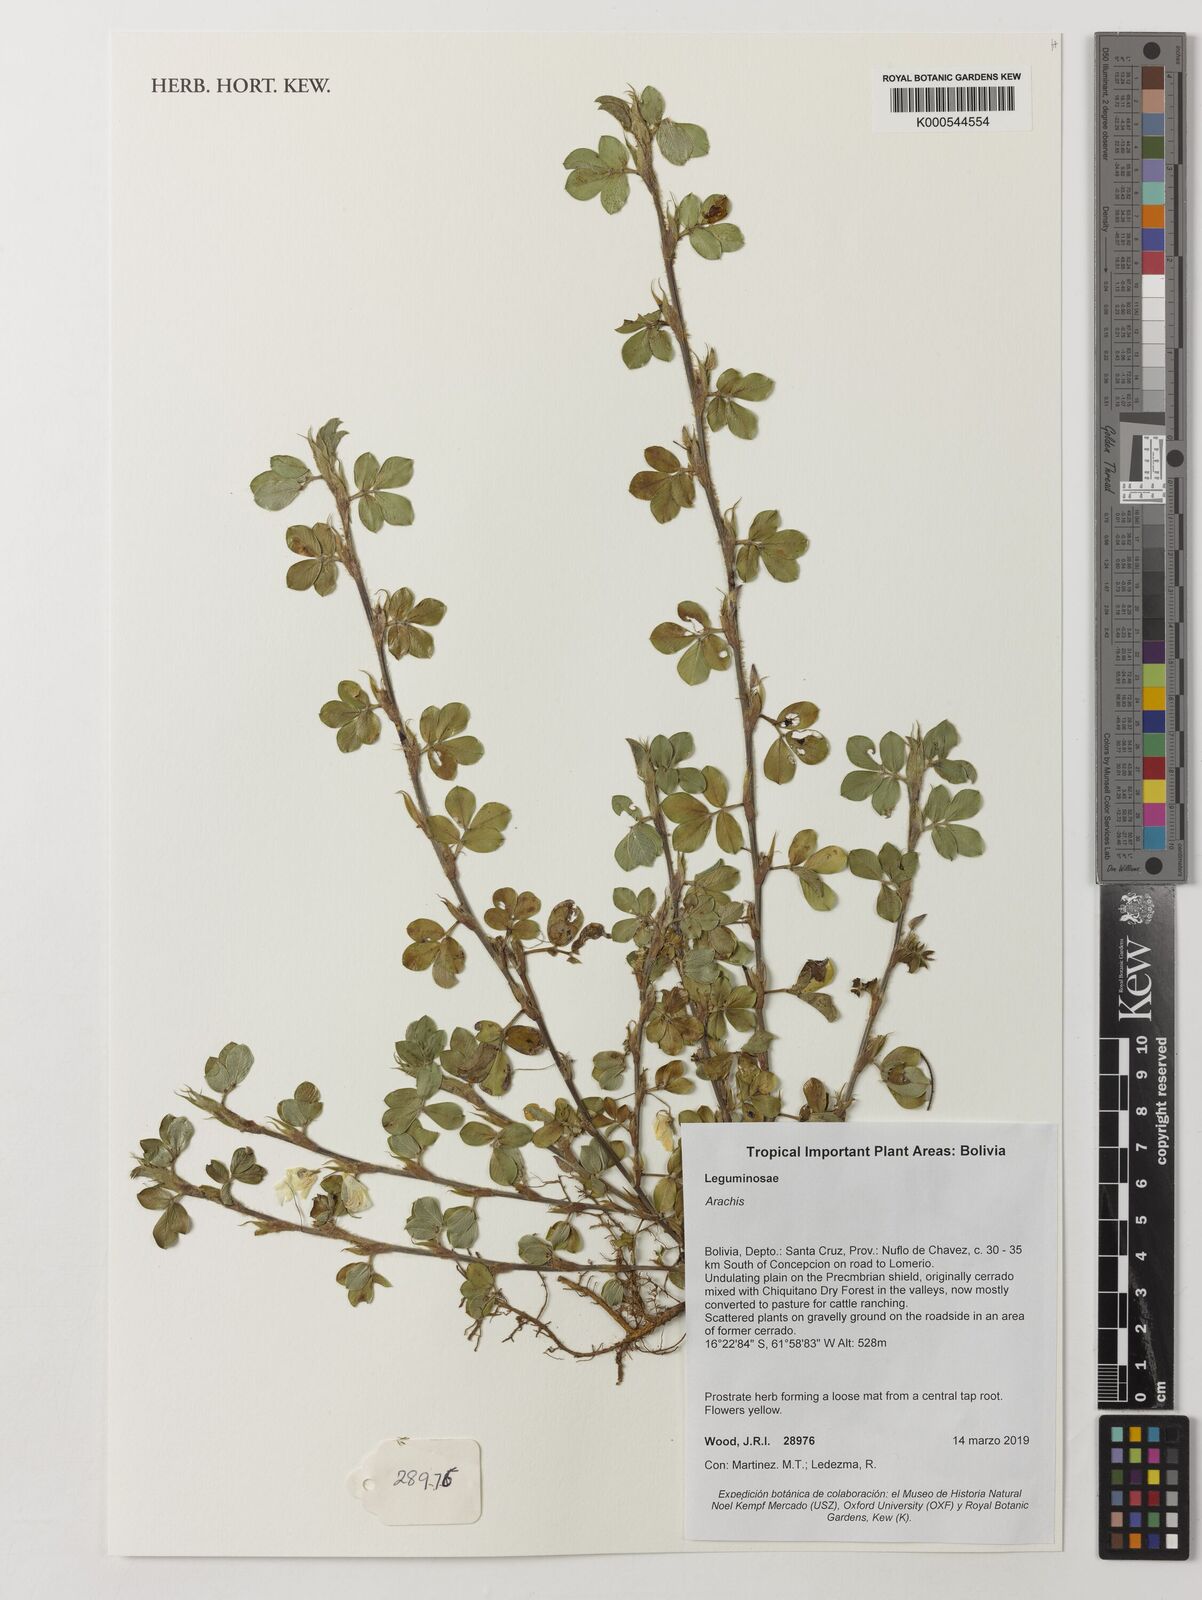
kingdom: Plantae
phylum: Tracheophyta
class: Magnoliopsida
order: Fabales
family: Fabaceae
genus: Arachis
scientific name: Arachis
